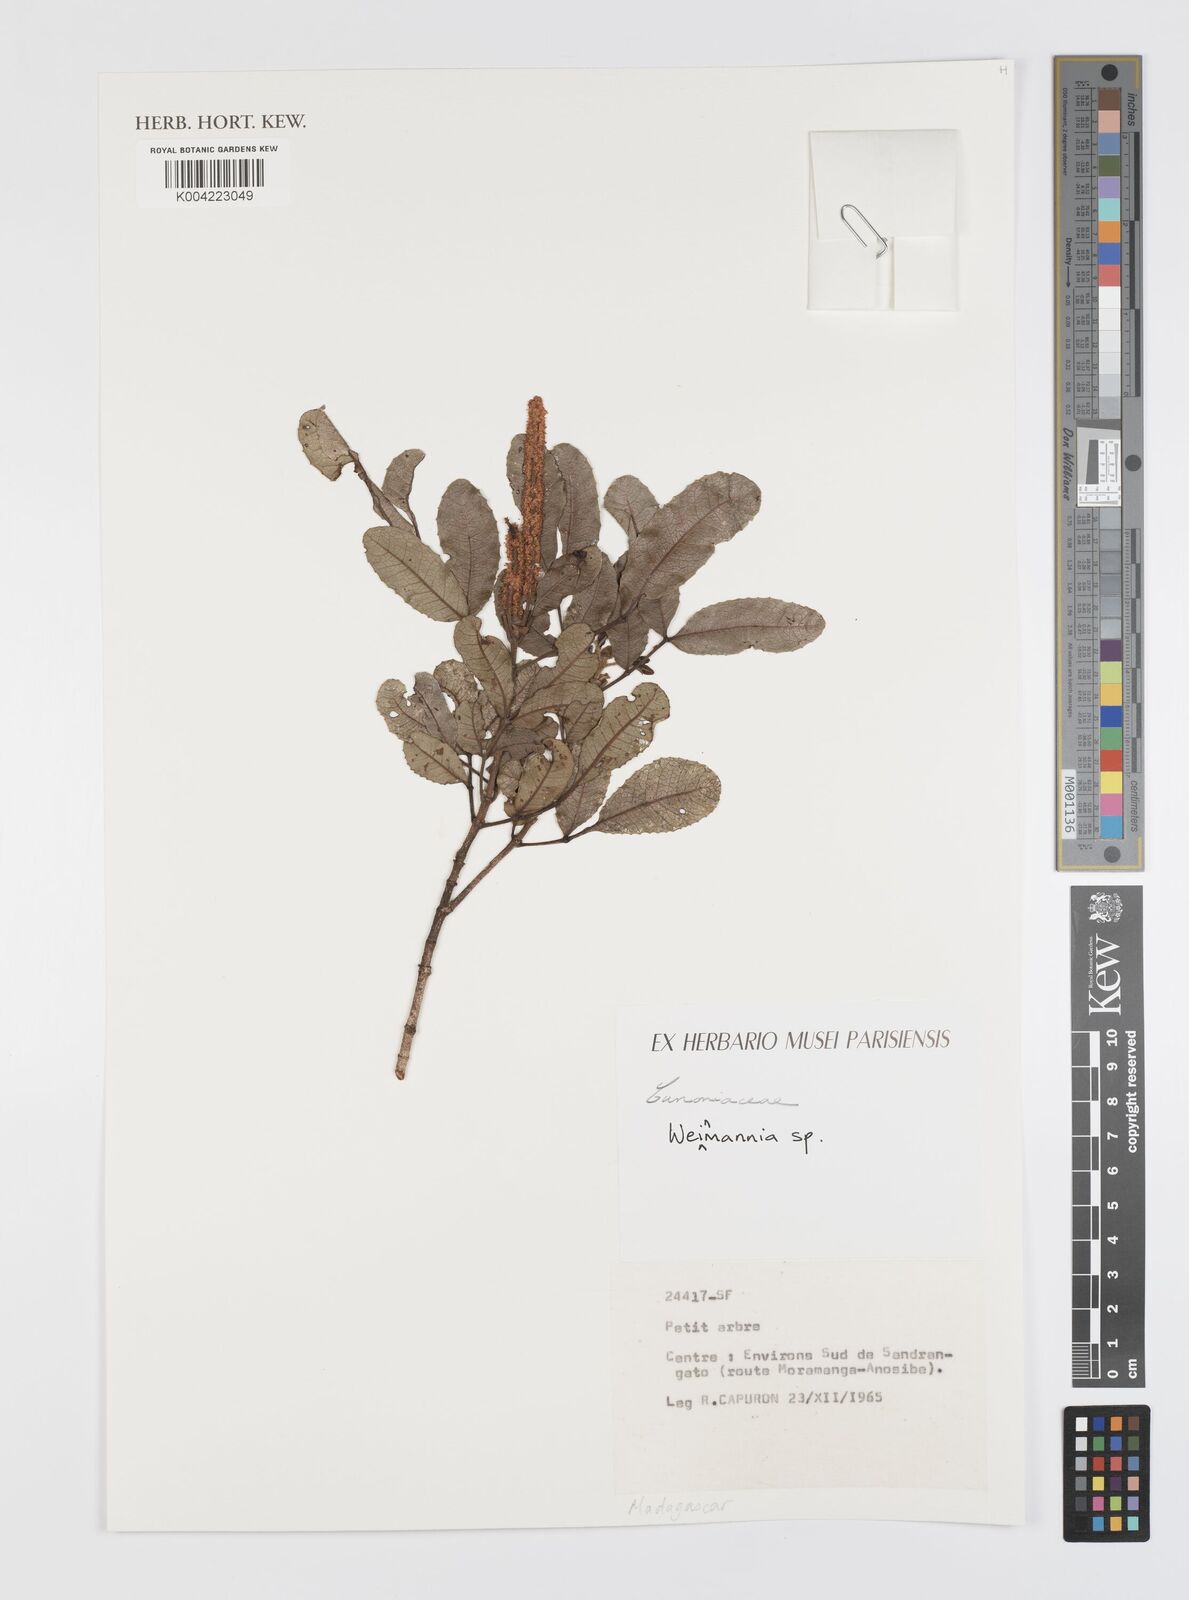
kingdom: Plantae
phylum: Tracheophyta
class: Magnoliopsida
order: Oxalidales
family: Cunoniaceae
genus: Weinmannia
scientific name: Weinmannia
